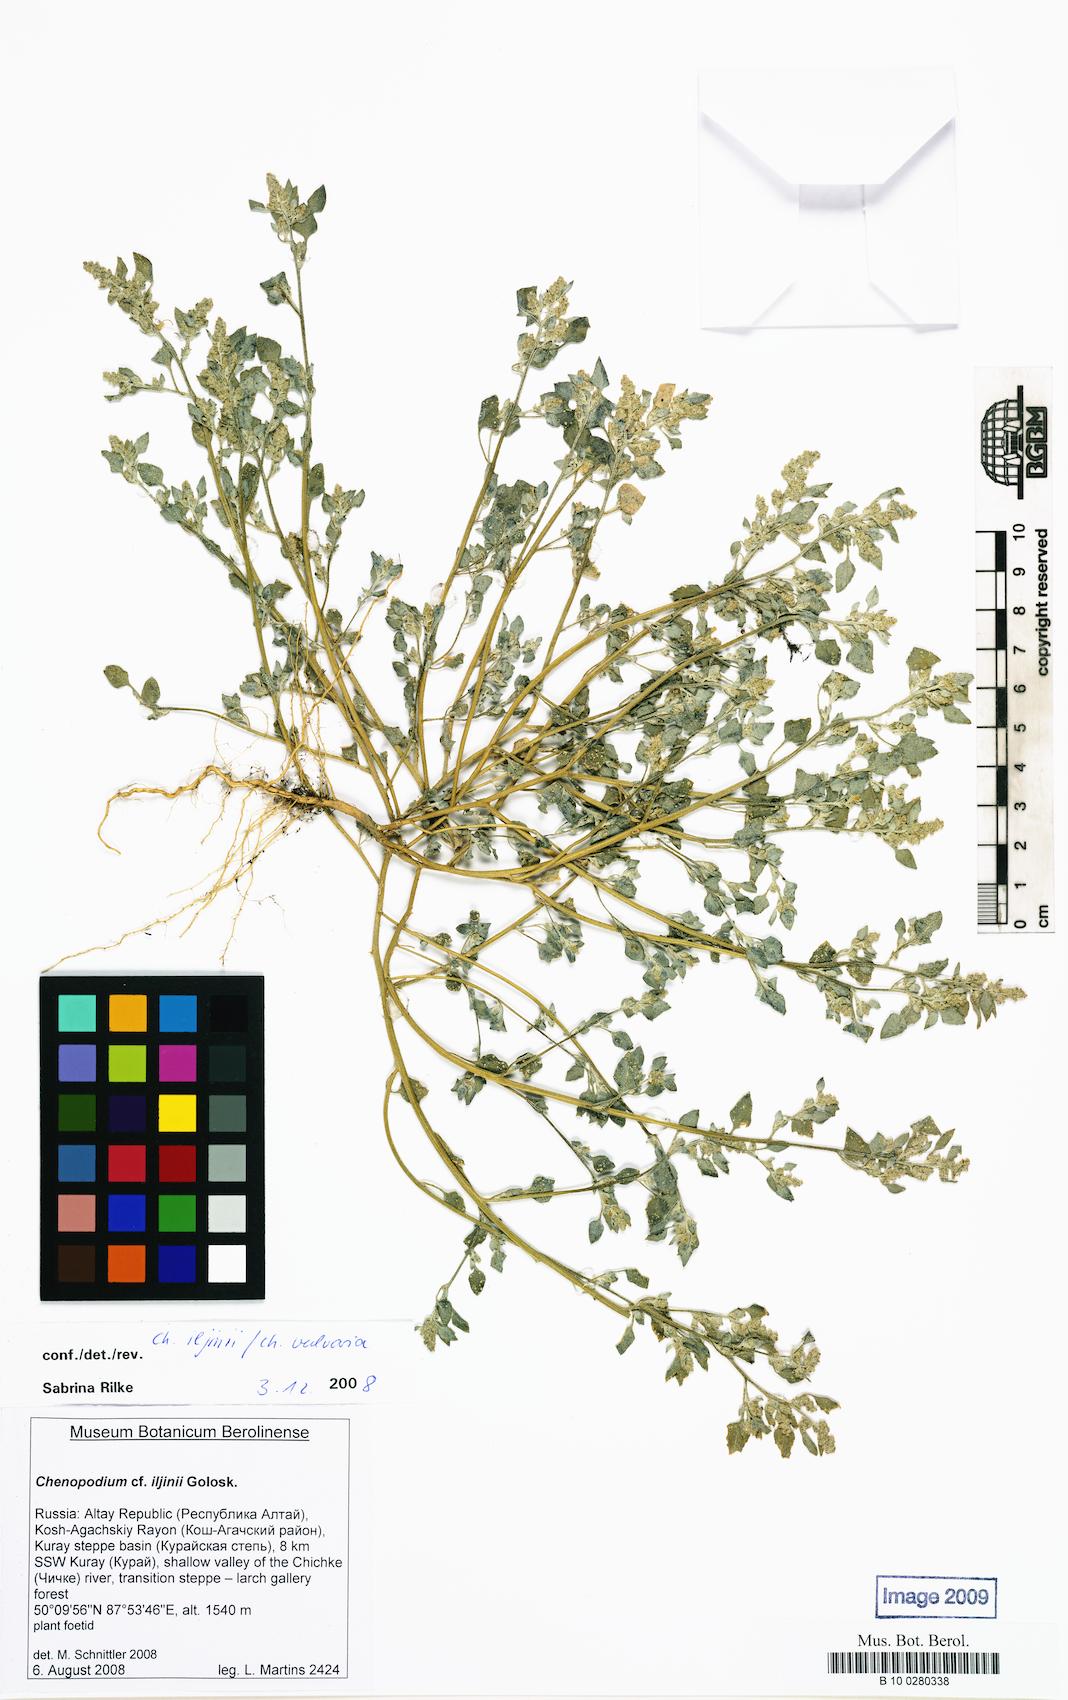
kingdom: Plantae
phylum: Tracheophyta
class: Magnoliopsida
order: Caryophyllales
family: Amaranthaceae
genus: Chenopodium
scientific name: Chenopodium iljinii
